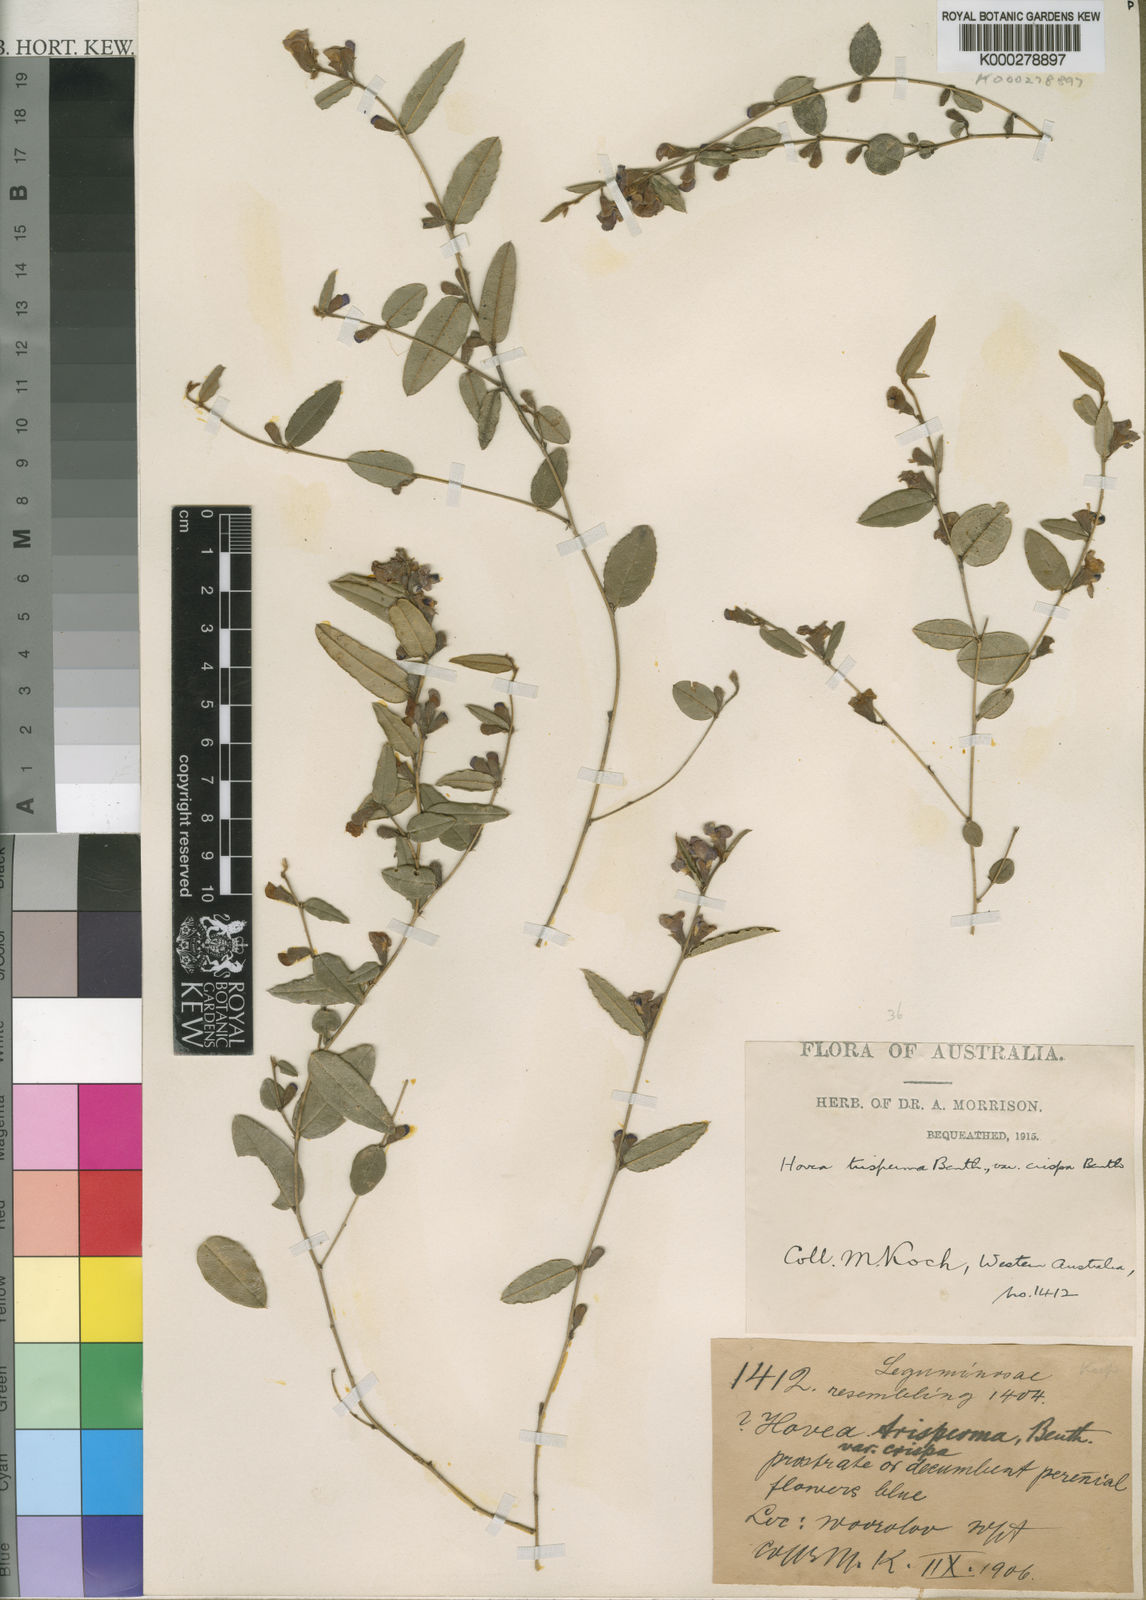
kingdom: Plantae
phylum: Tracheophyta
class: Magnoliopsida
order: Fabales
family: Fabaceae
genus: Hovea
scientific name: Hovea trisperma
